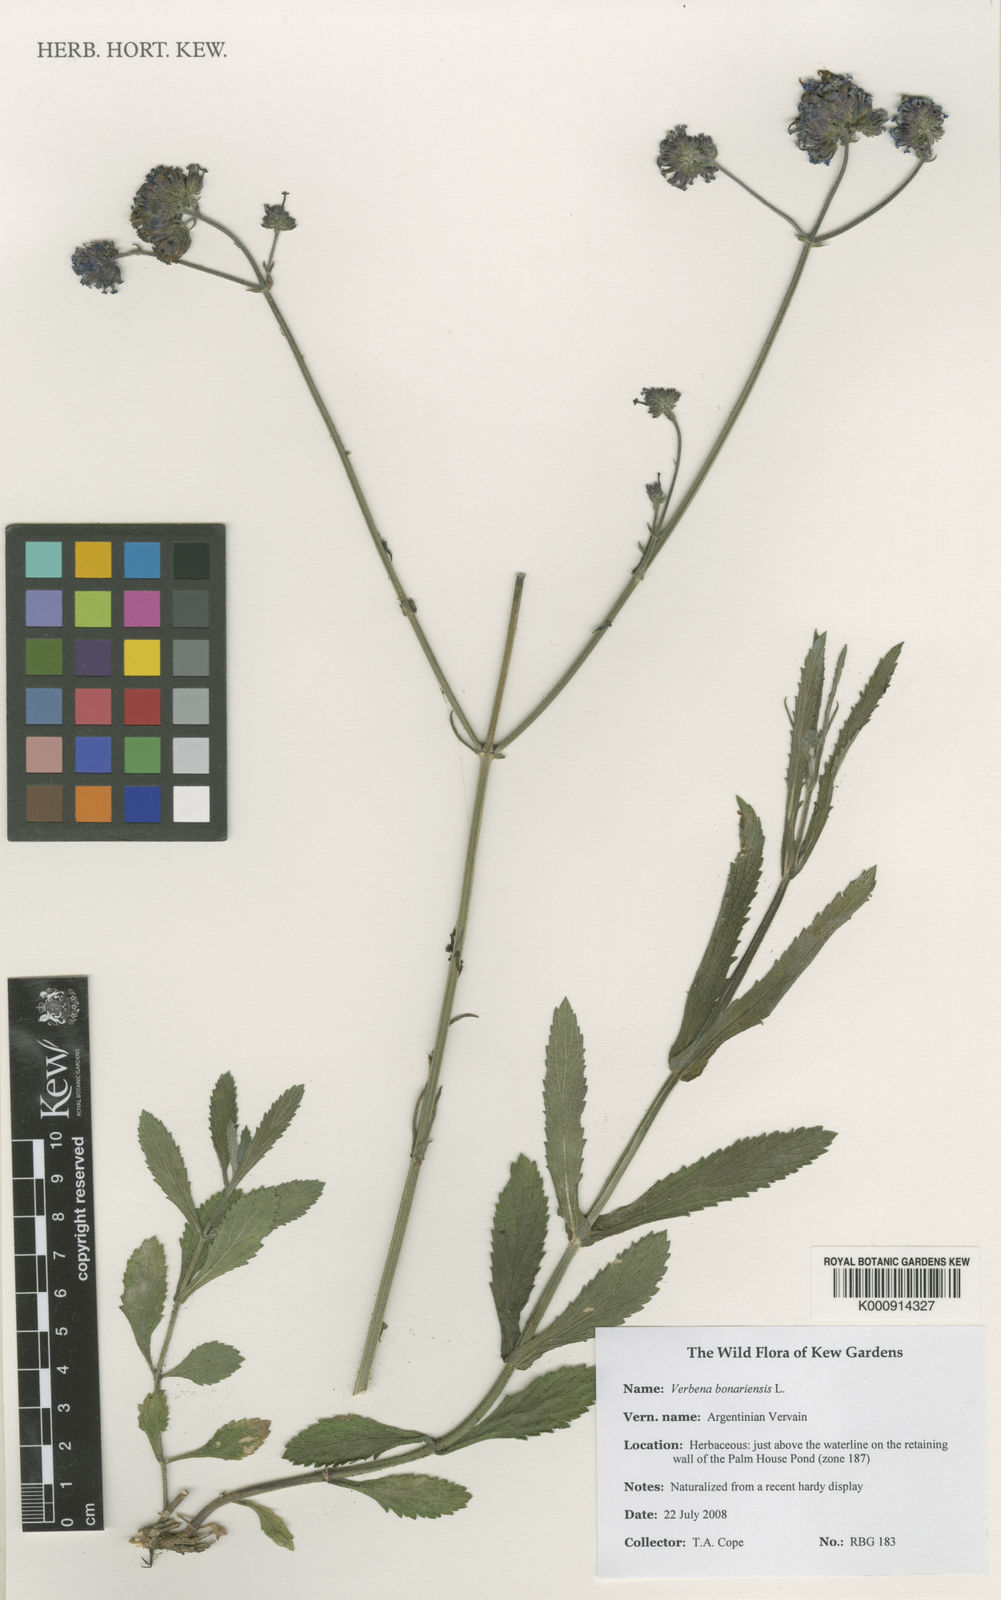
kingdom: Plantae
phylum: Tracheophyta
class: Magnoliopsida
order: Lamiales
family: Verbenaceae
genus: Verbena
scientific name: Verbena bonariensis
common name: Purpletop vervain
